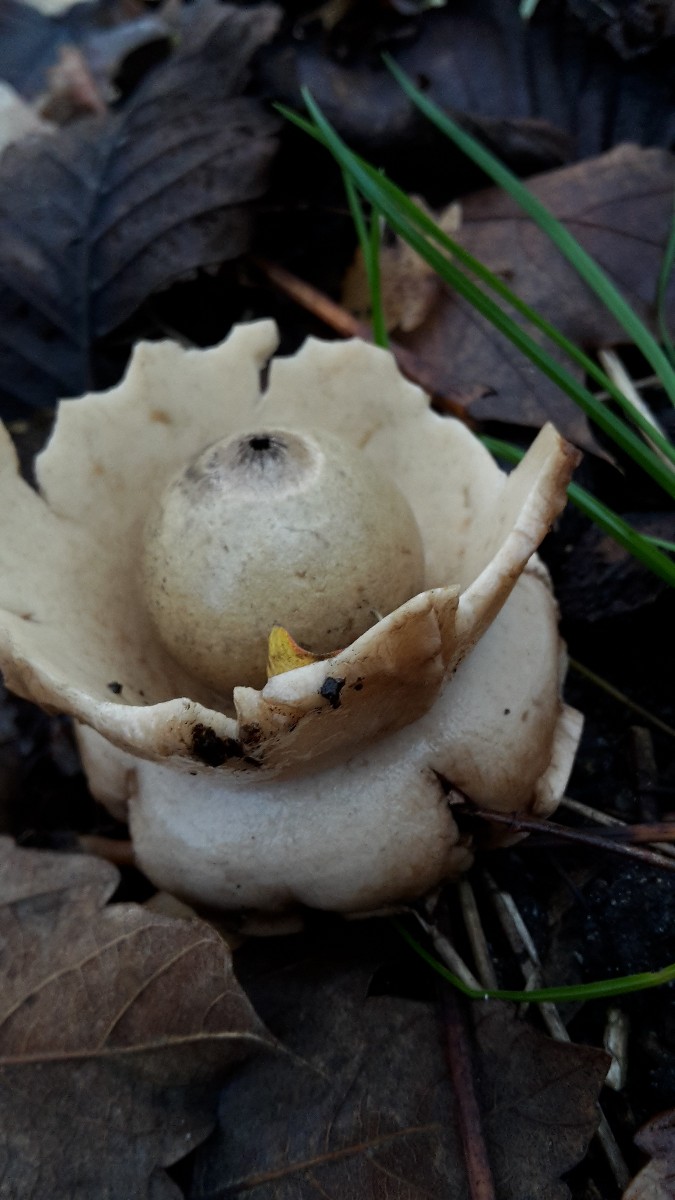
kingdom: Fungi
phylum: Basidiomycota
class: Agaricomycetes
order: Geastrales
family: Geastraceae
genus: Geastrum
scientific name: Geastrum michelianum
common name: kødet stjernebold
